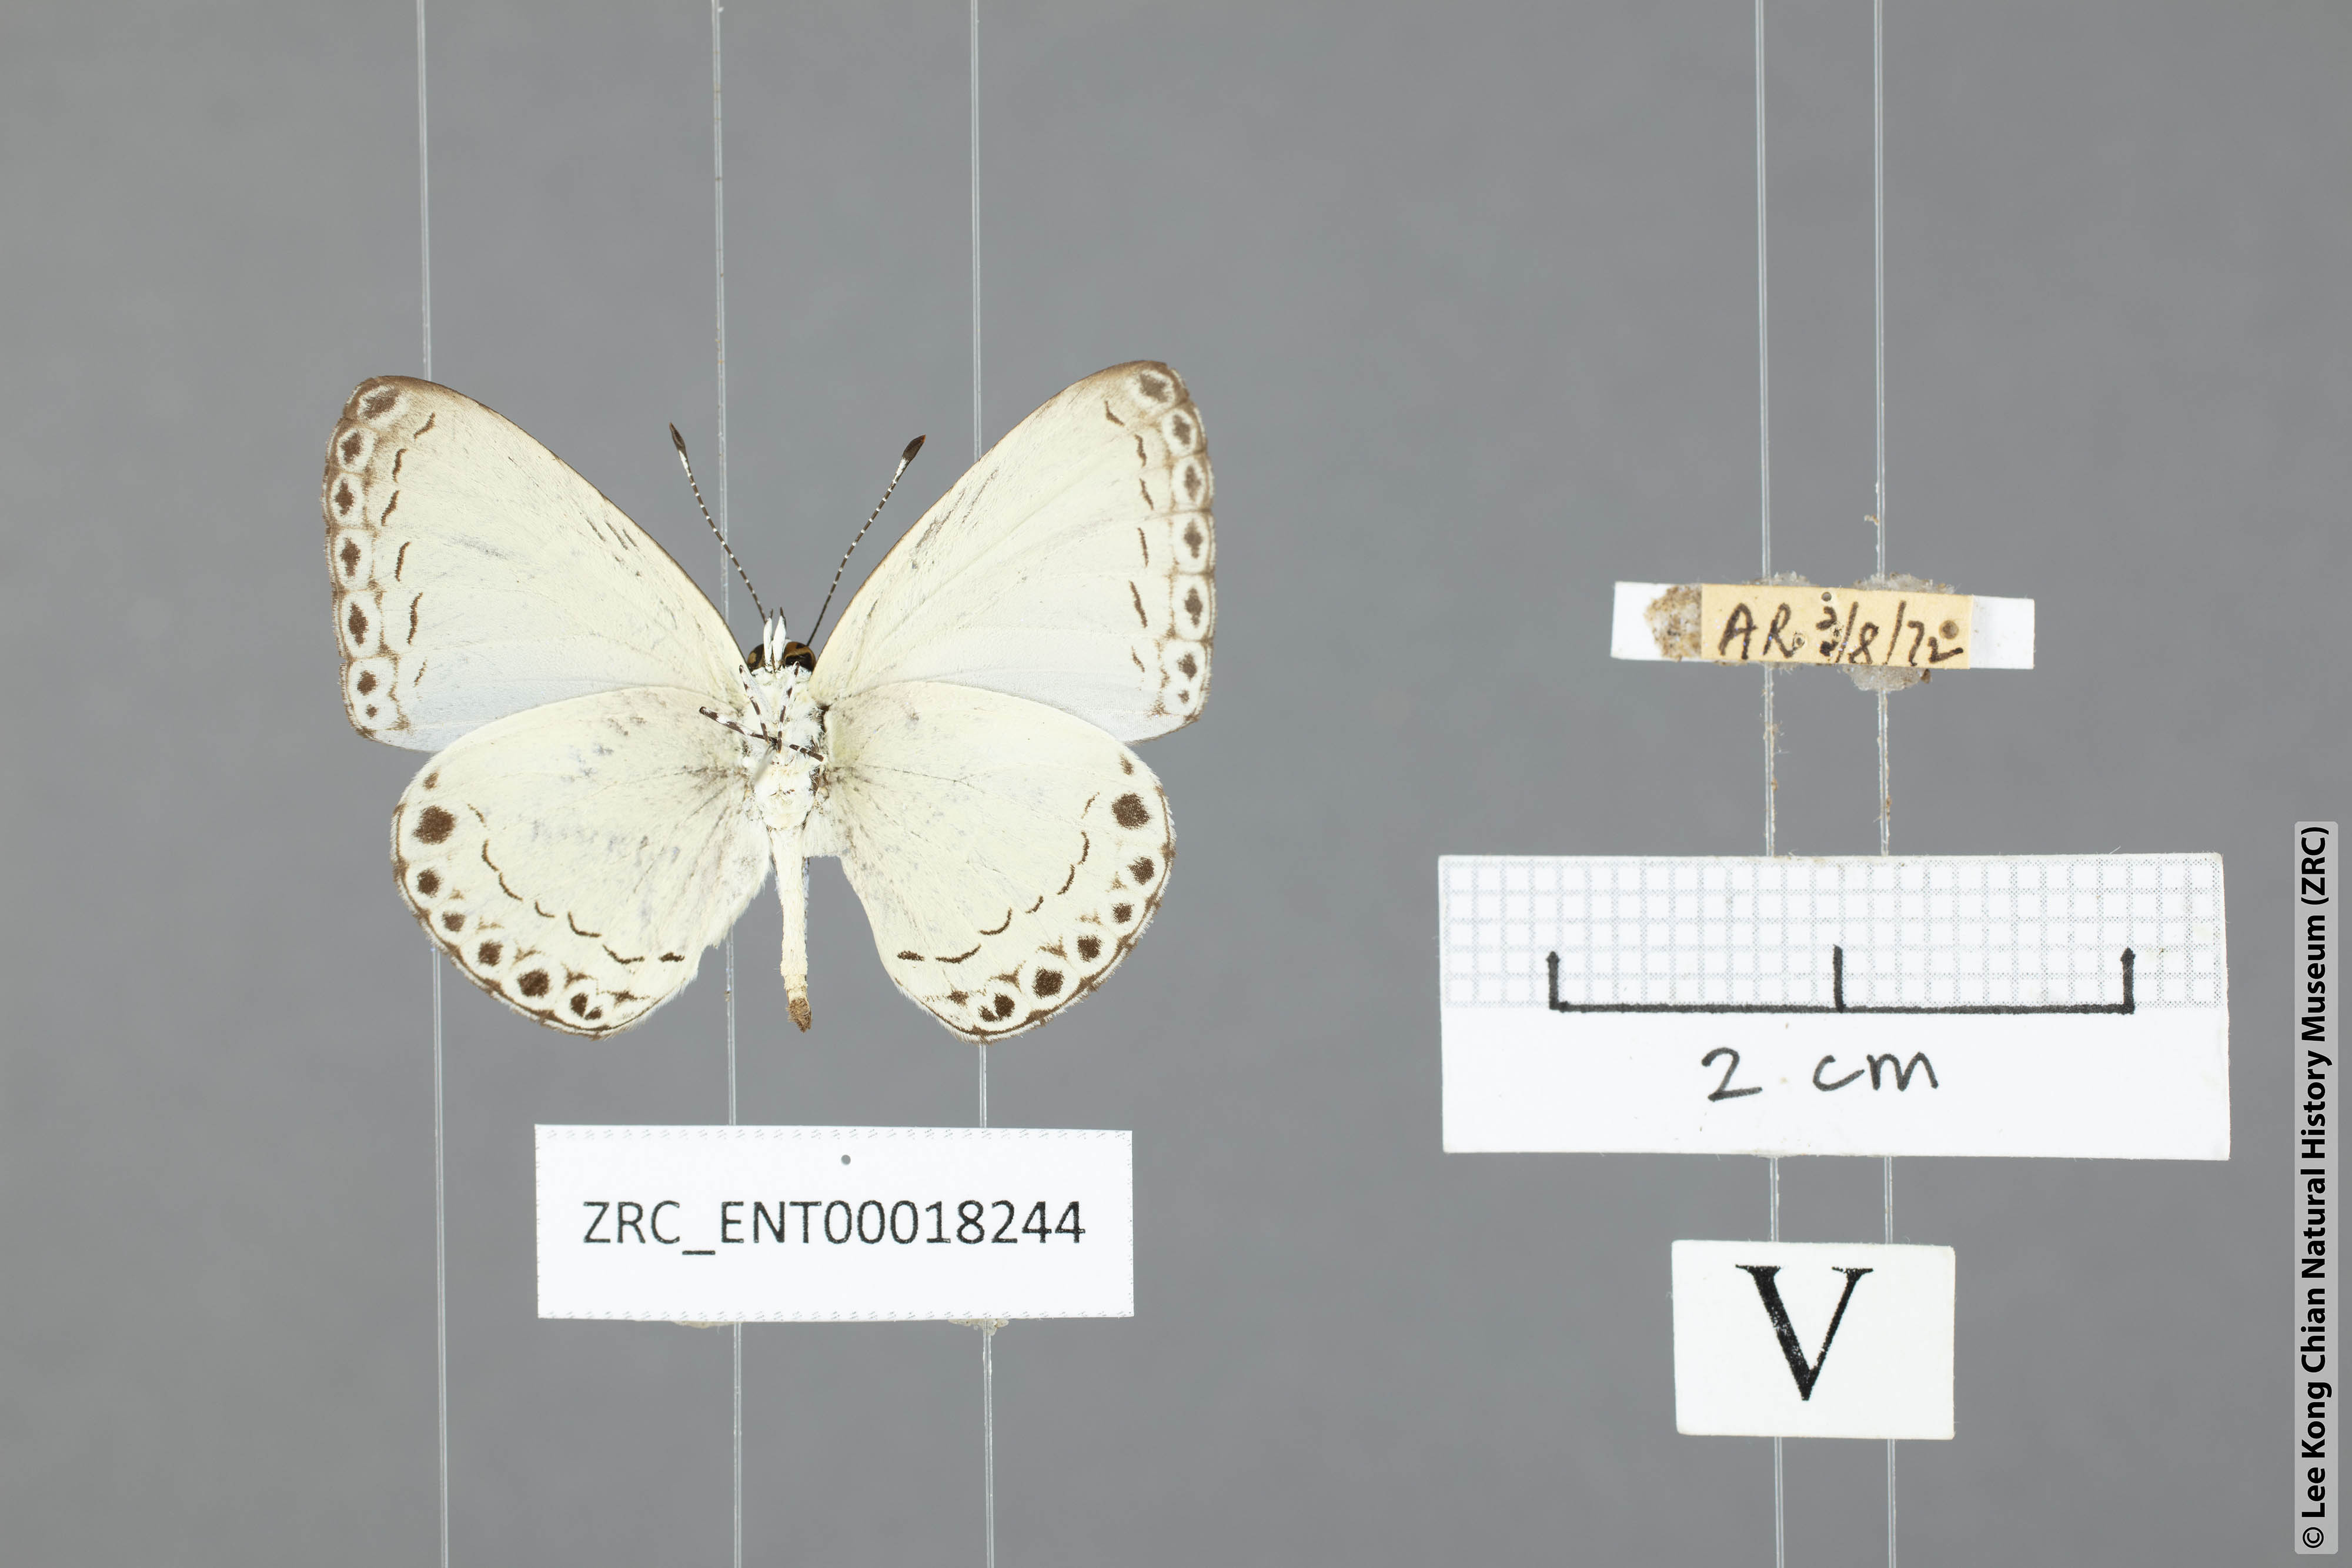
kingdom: Animalia
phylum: Arthropoda
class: Insecta
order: Lepidoptera
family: Lycaenidae
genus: Lycaenopsis
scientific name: Lycaenopsis haraldus
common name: Felder's hedge blue
